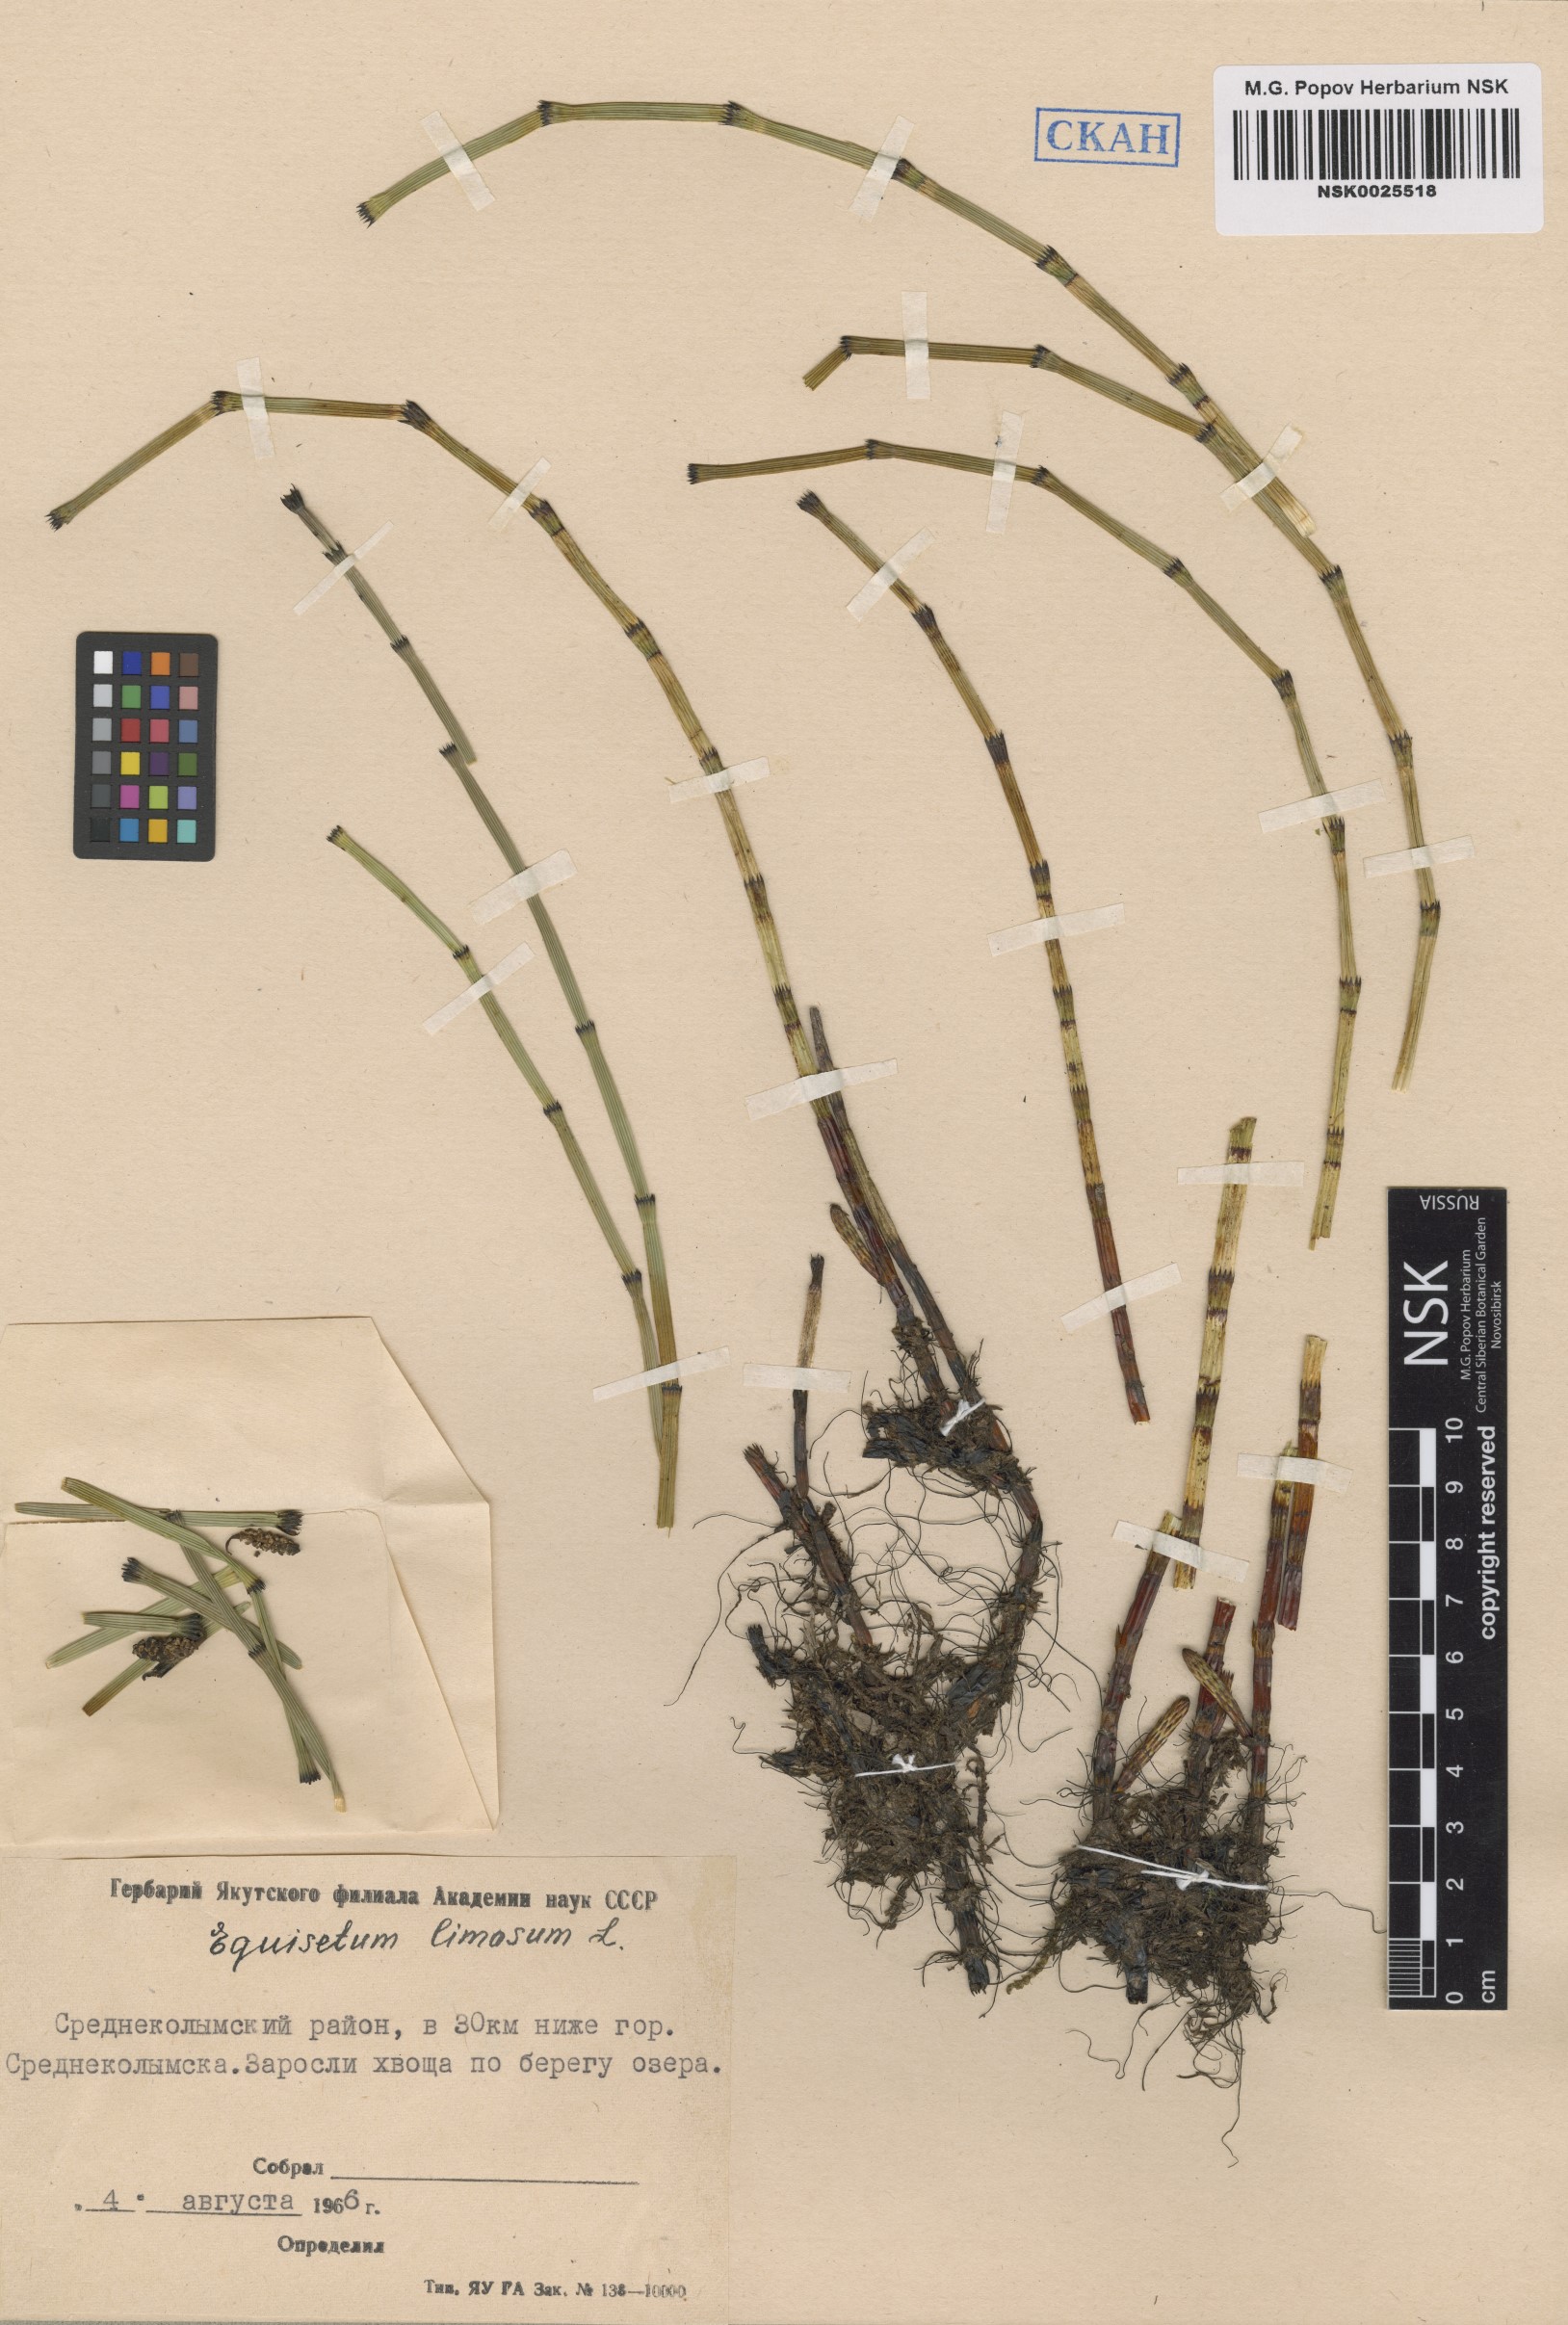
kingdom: Plantae
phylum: Tracheophyta
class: Polypodiopsida
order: Equisetales
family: Equisetaceae
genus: Equisetum
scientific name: Equisetum fluviatile
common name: Water horsetail
